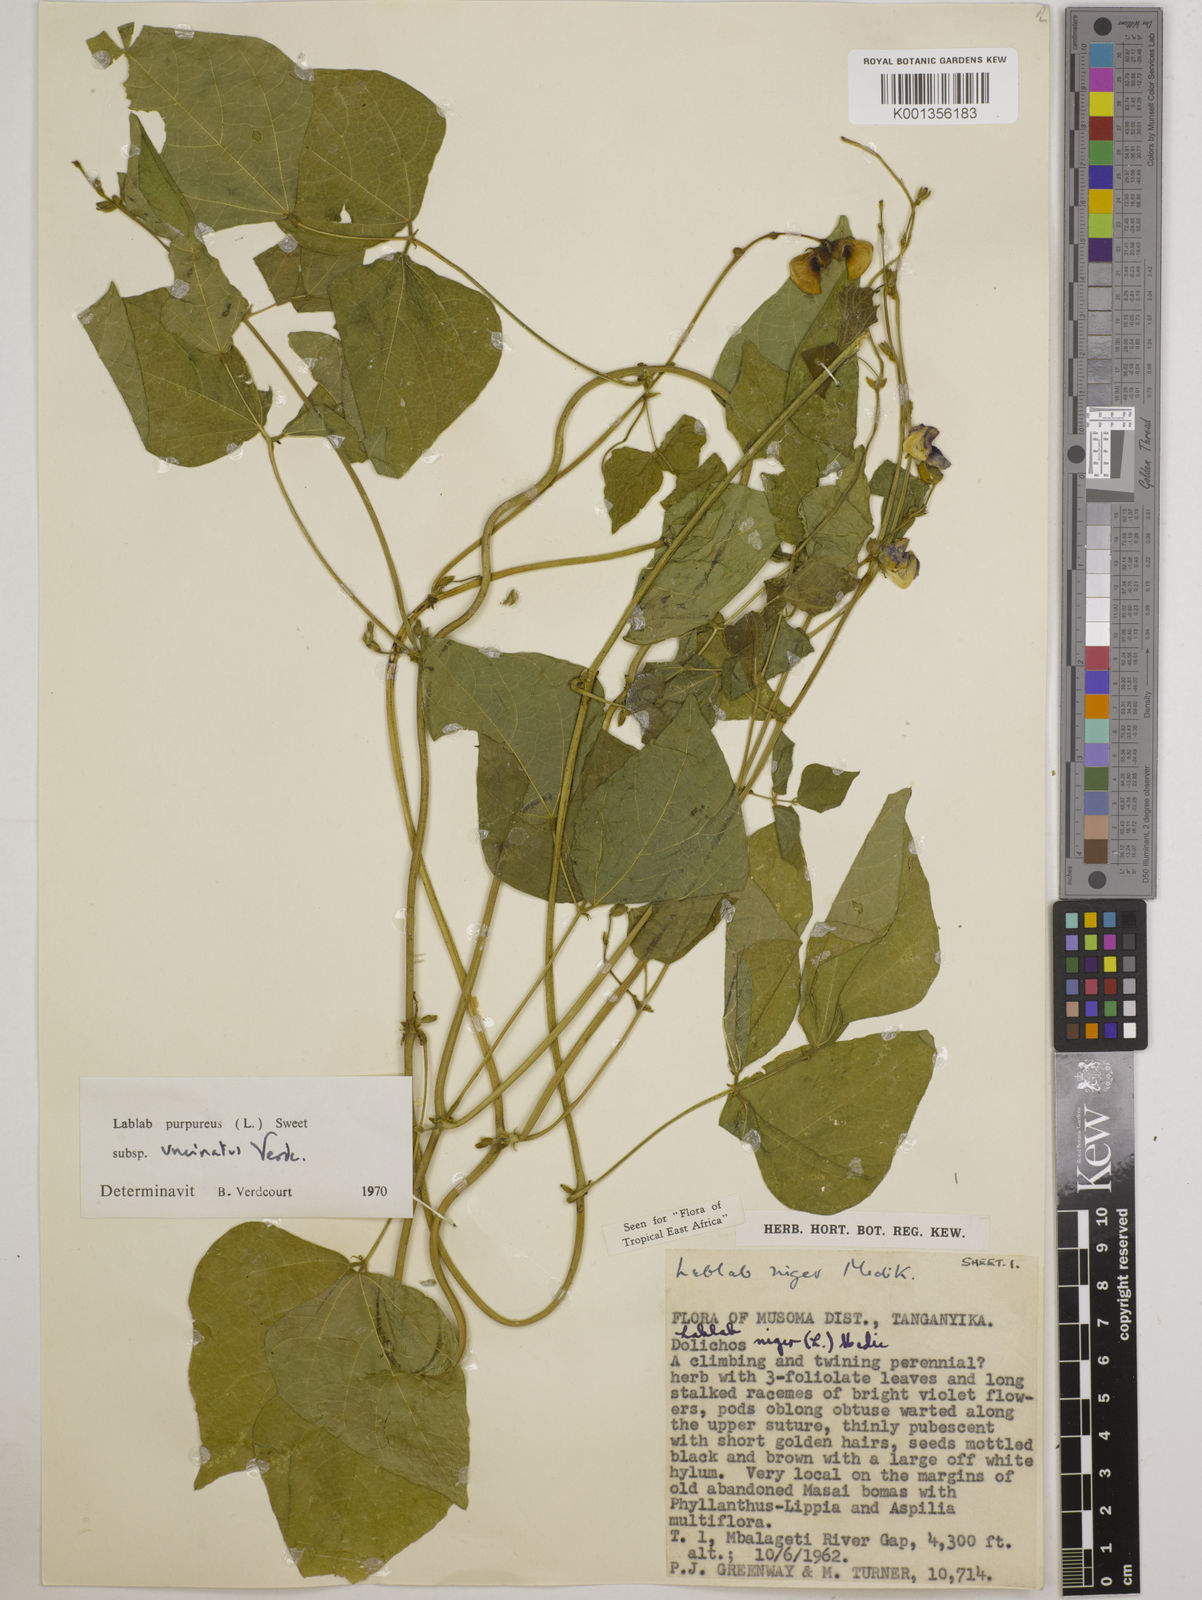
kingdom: Plantae
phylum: Tracheophyta
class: Magnoliopsida
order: Fabales
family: Fabaceae
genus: Lablab
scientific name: Lablab purpureus
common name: Lablab-bean
